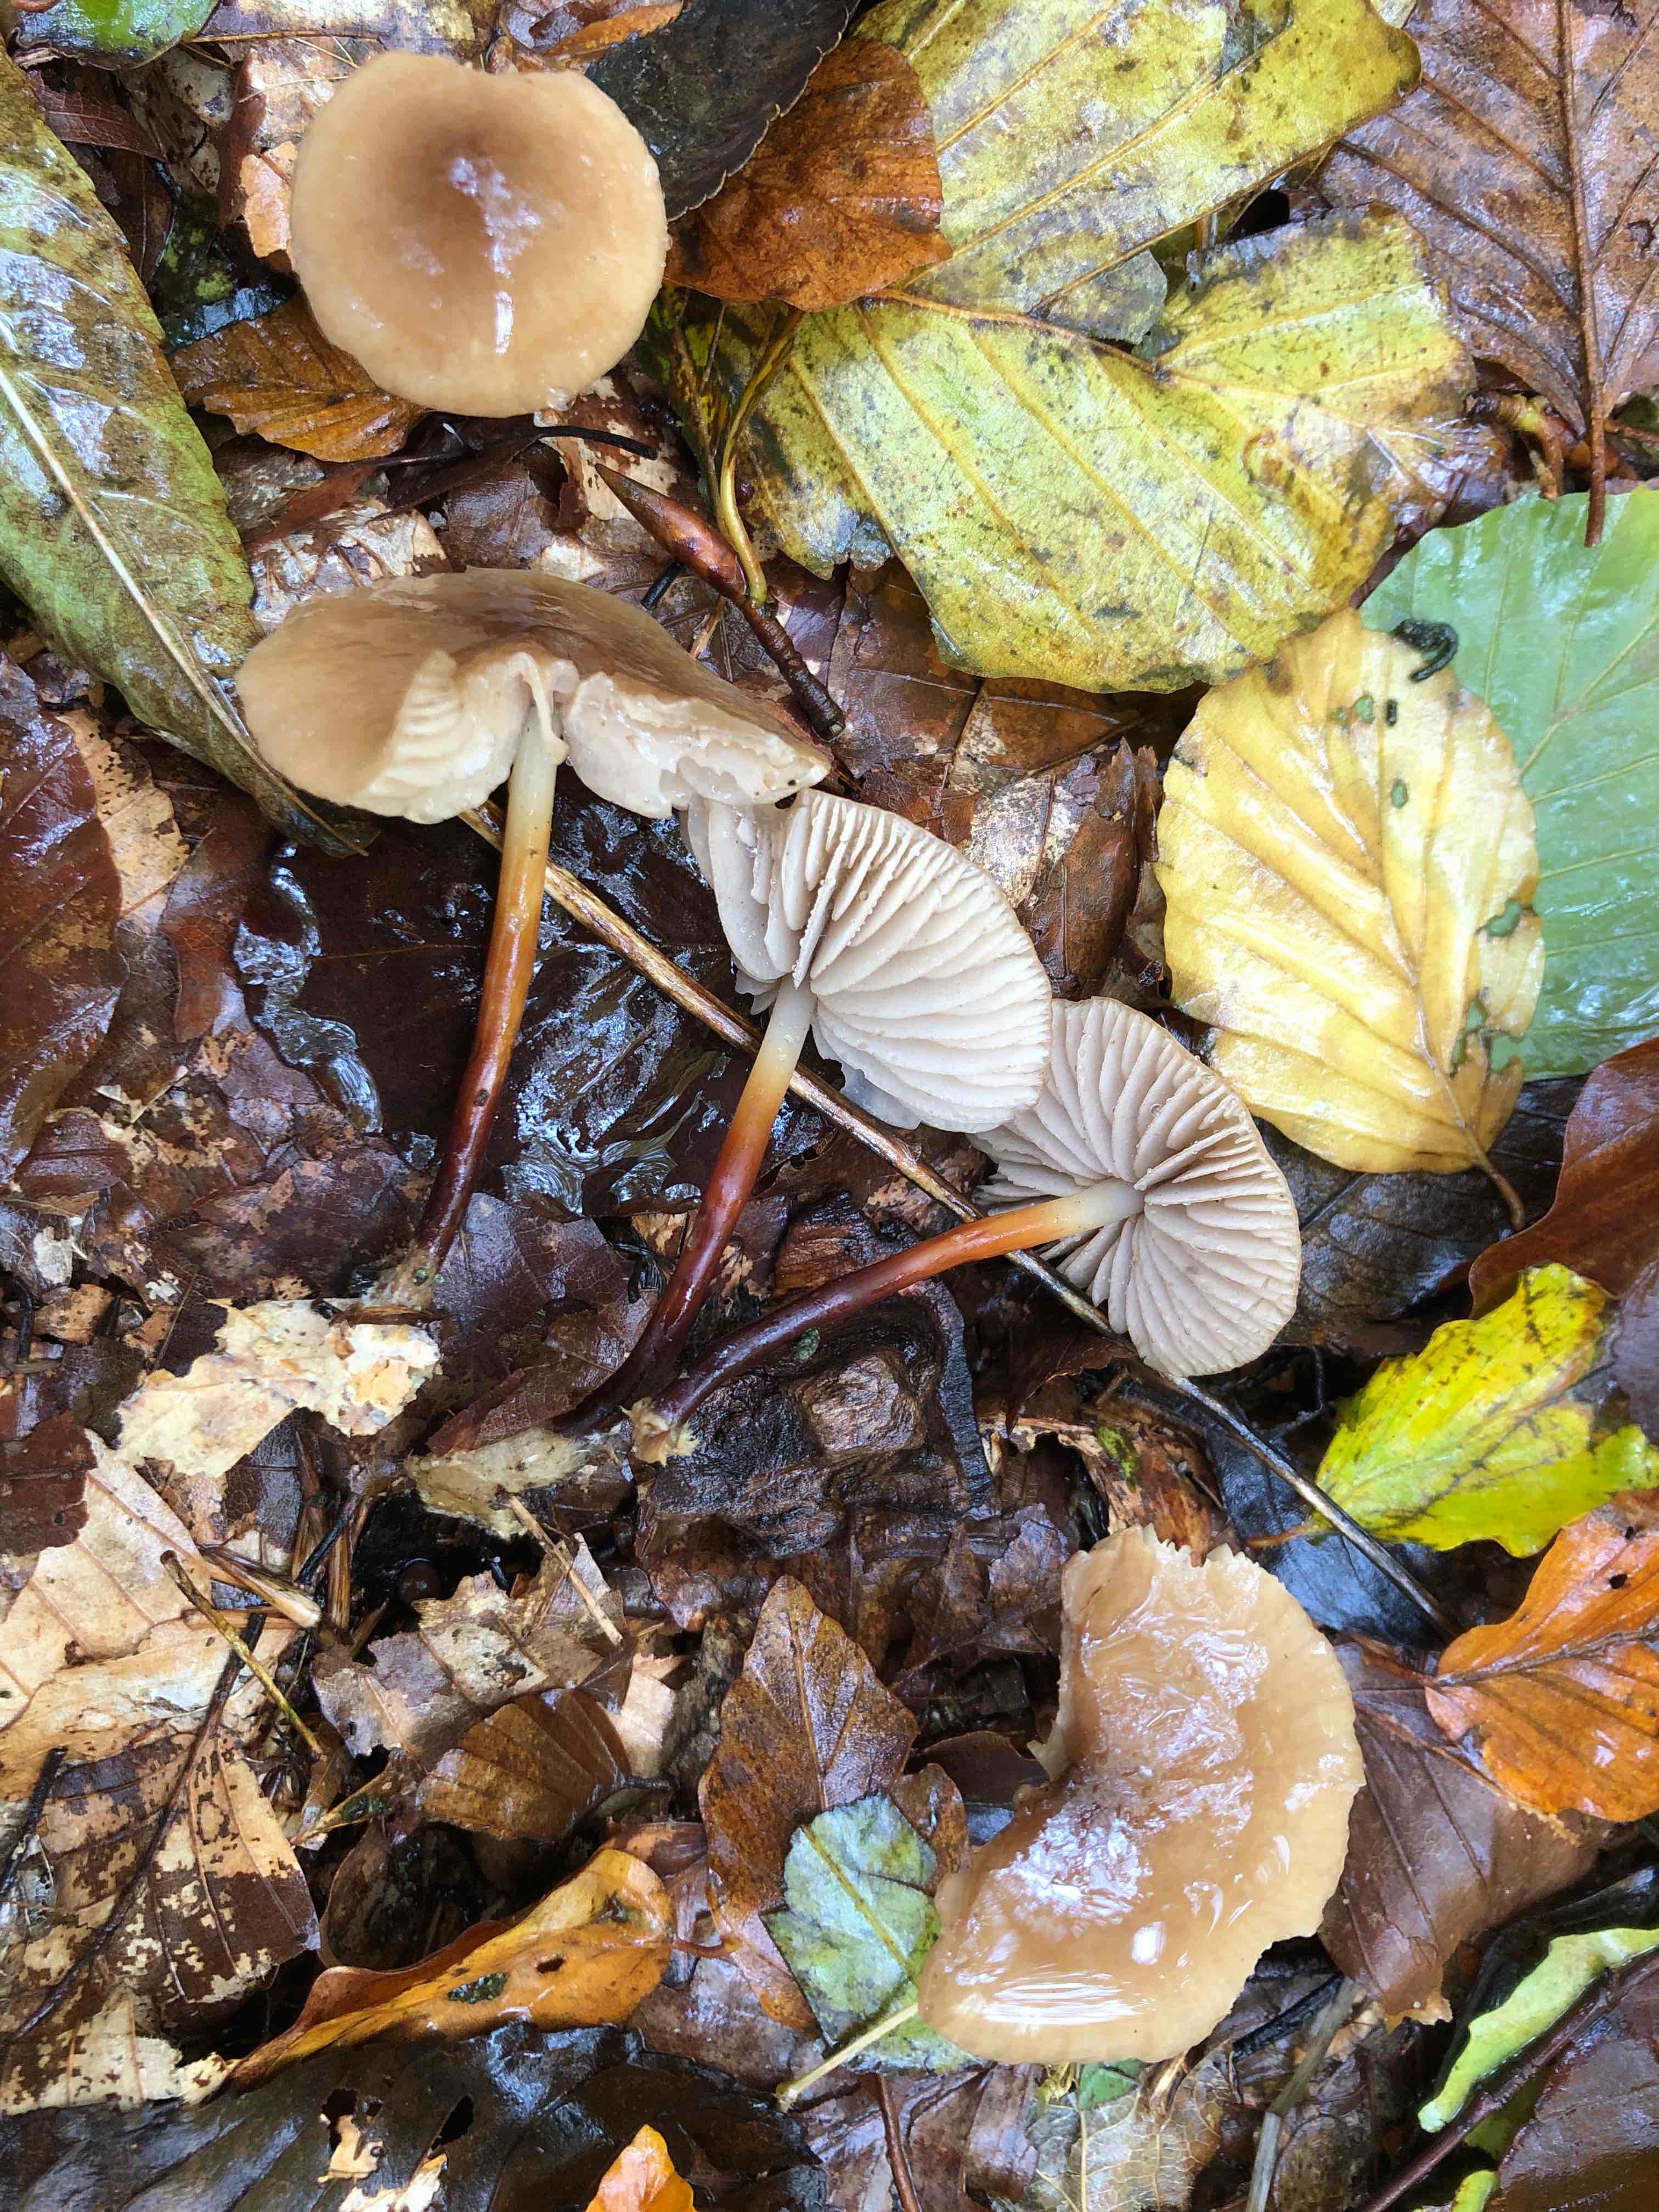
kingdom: Fungi
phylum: Basidiomycota
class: Agaricomycetes
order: Agaricales
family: Marasmiaceae
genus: Marasmius
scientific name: Marasmius wynneae
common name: hvælvet bruskhat
